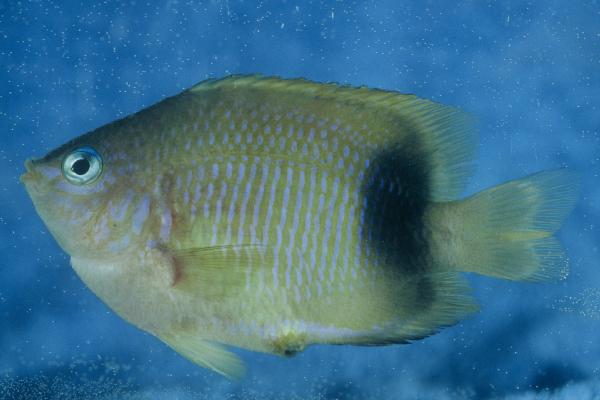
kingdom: Animalia
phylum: Chordata
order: Perciformes
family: Pomacentridae
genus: Plectroglyphidodon
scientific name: Plectroglyphidodon johnstonianus
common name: Johnston damsel
